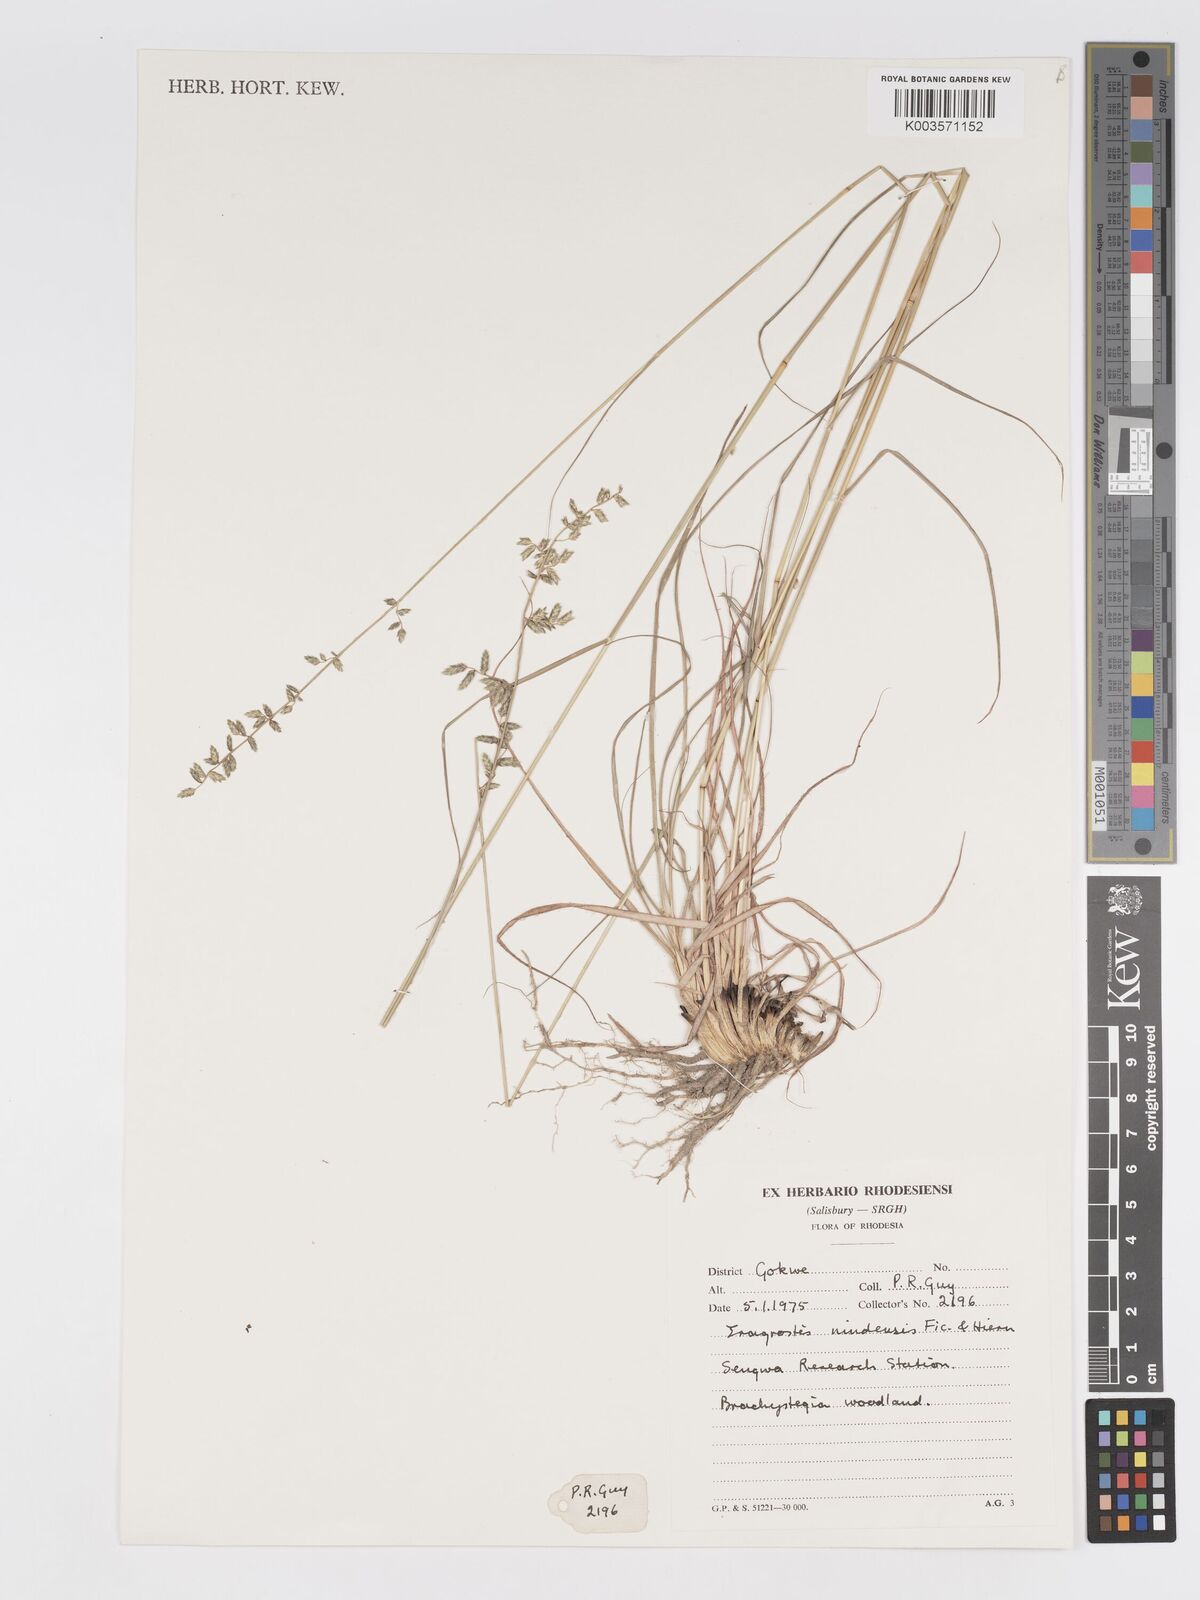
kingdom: Plantae
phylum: Tracheophyta
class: Liliopsida
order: Poales
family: Poaceae
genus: Eragrostis
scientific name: Eragrostis nindensis
